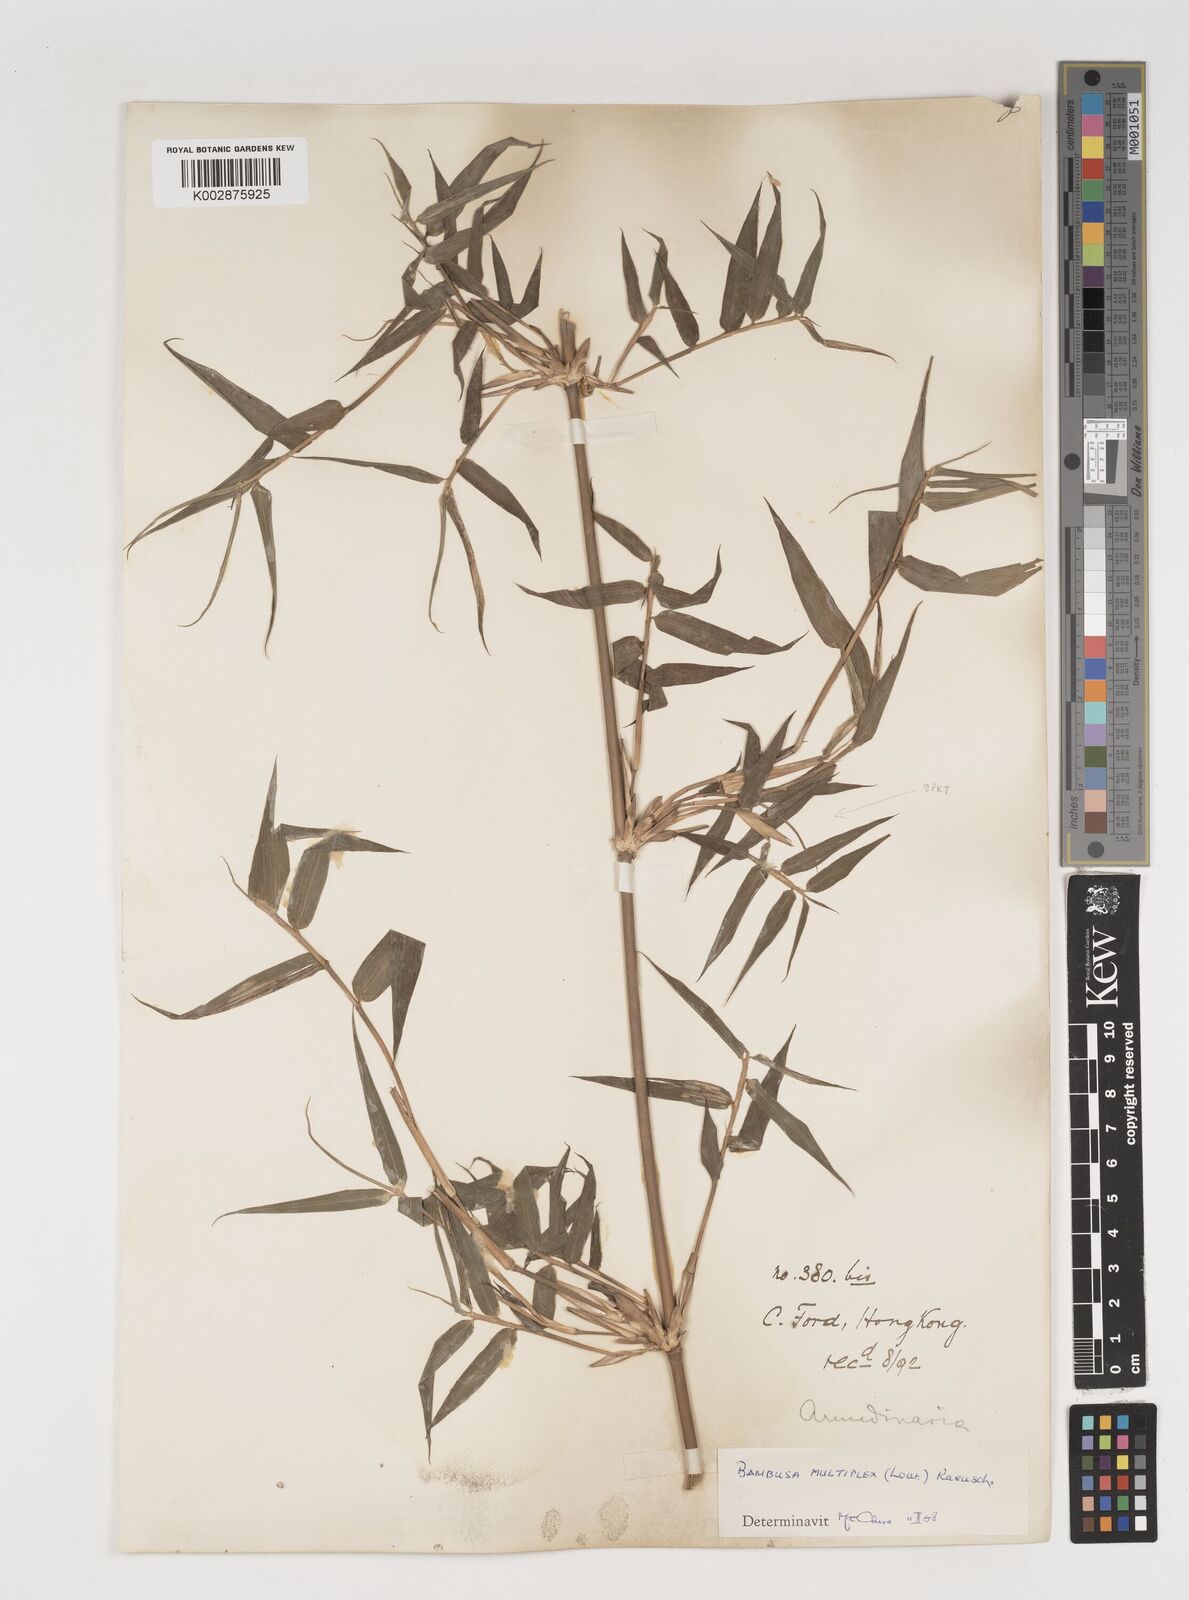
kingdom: Plantae
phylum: Tracheophyta
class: Liliopsida
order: Poales
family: Poaceae
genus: Bambusa
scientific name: Bambusa multiplex
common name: Hedge bamboo
